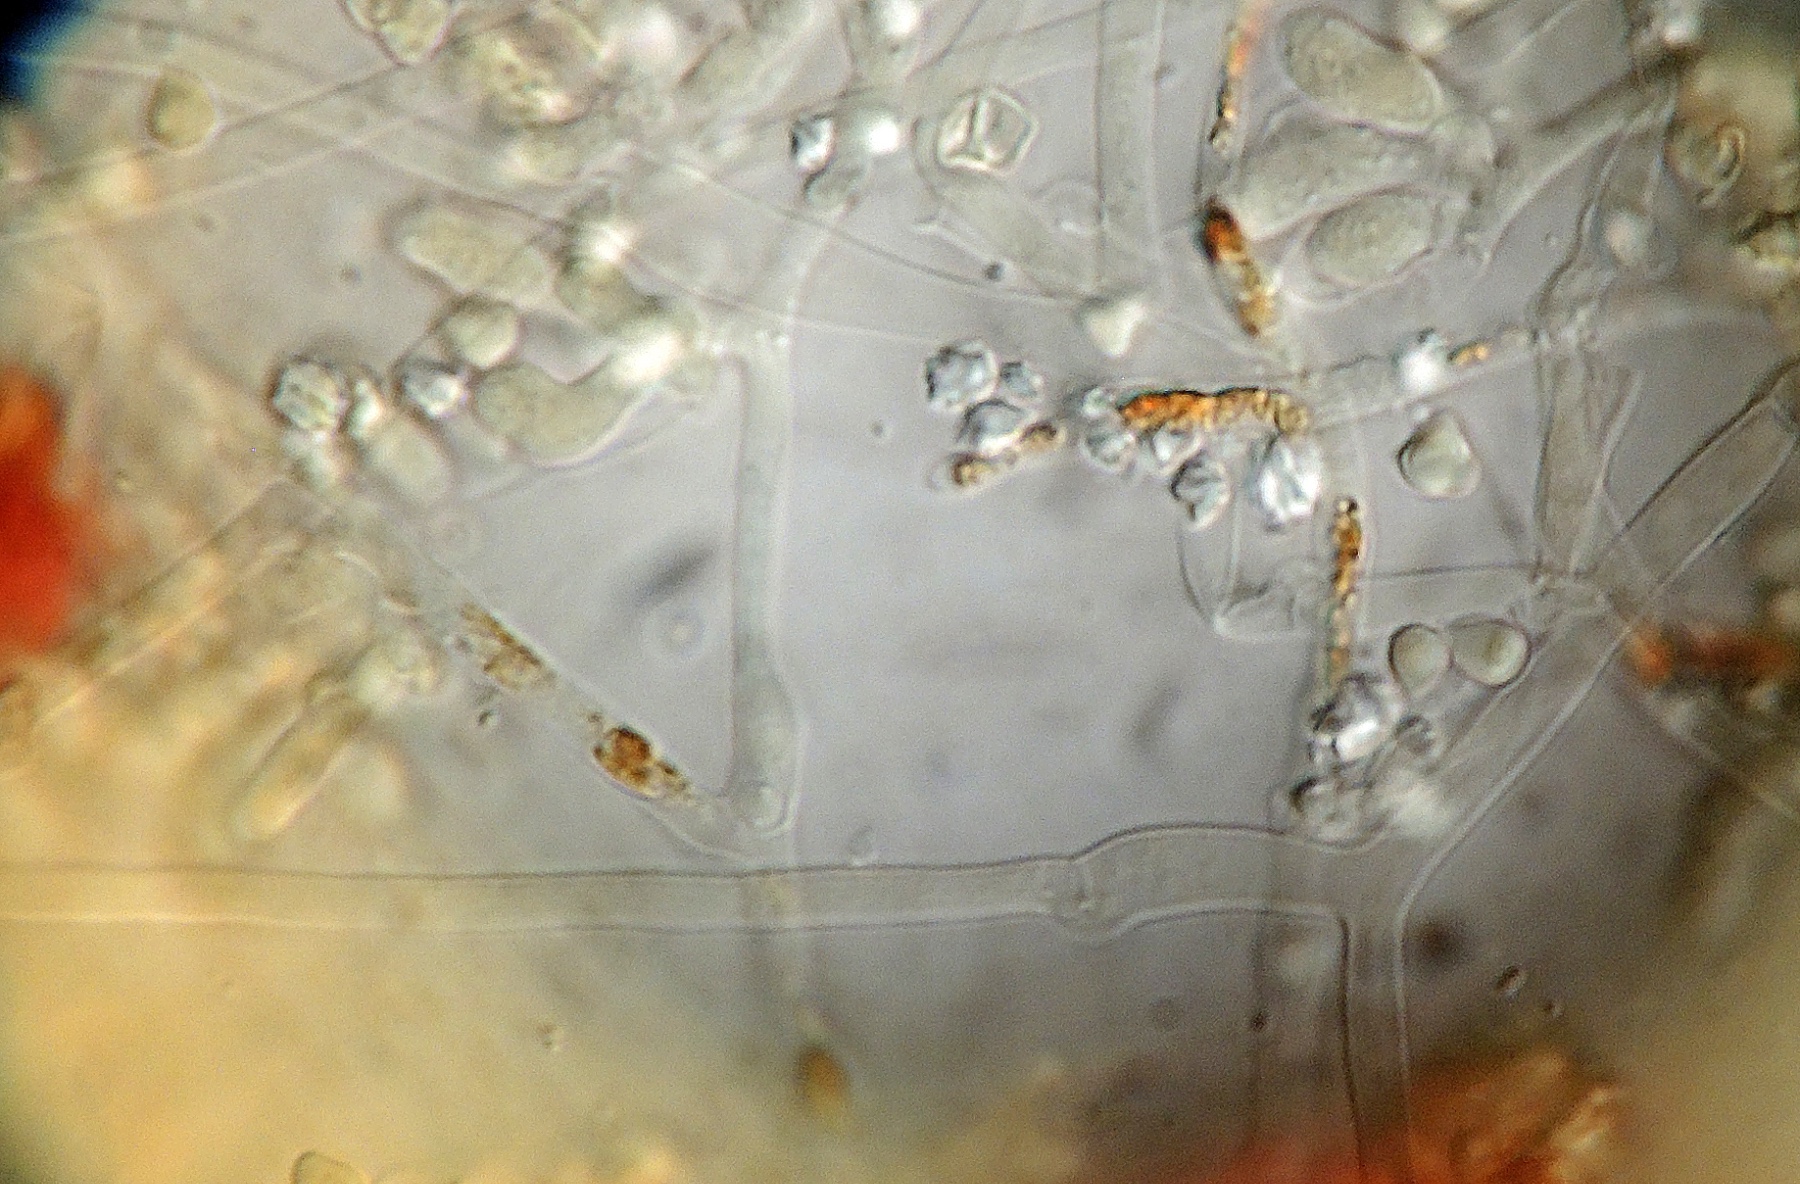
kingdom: Fungi
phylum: Basidiomycota
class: Agaricomycetes
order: Trechisporales
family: Sistotremataceae
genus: Trechispora
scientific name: Trechispora subsphaerospora
